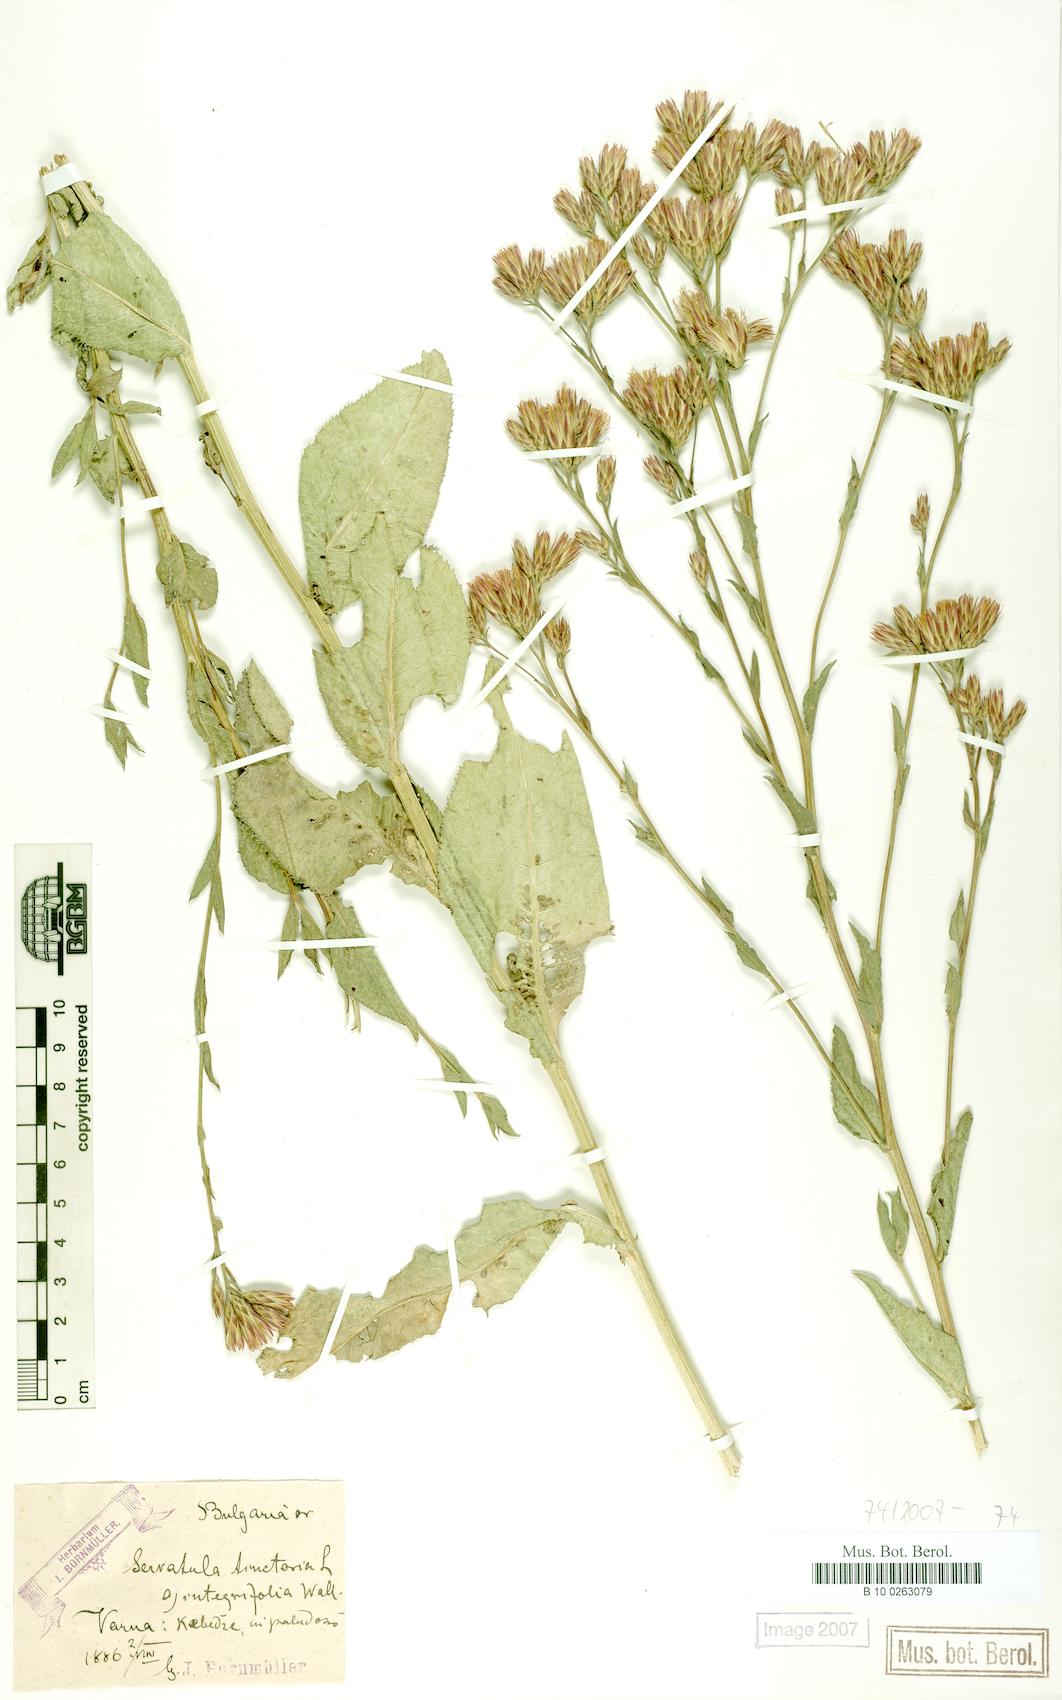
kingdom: Plantae
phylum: Tracheophyta
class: Magnoliopsida
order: Asterales
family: Asteraceae
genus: Serratula
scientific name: Serratula tinctoria
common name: Saw-wort
